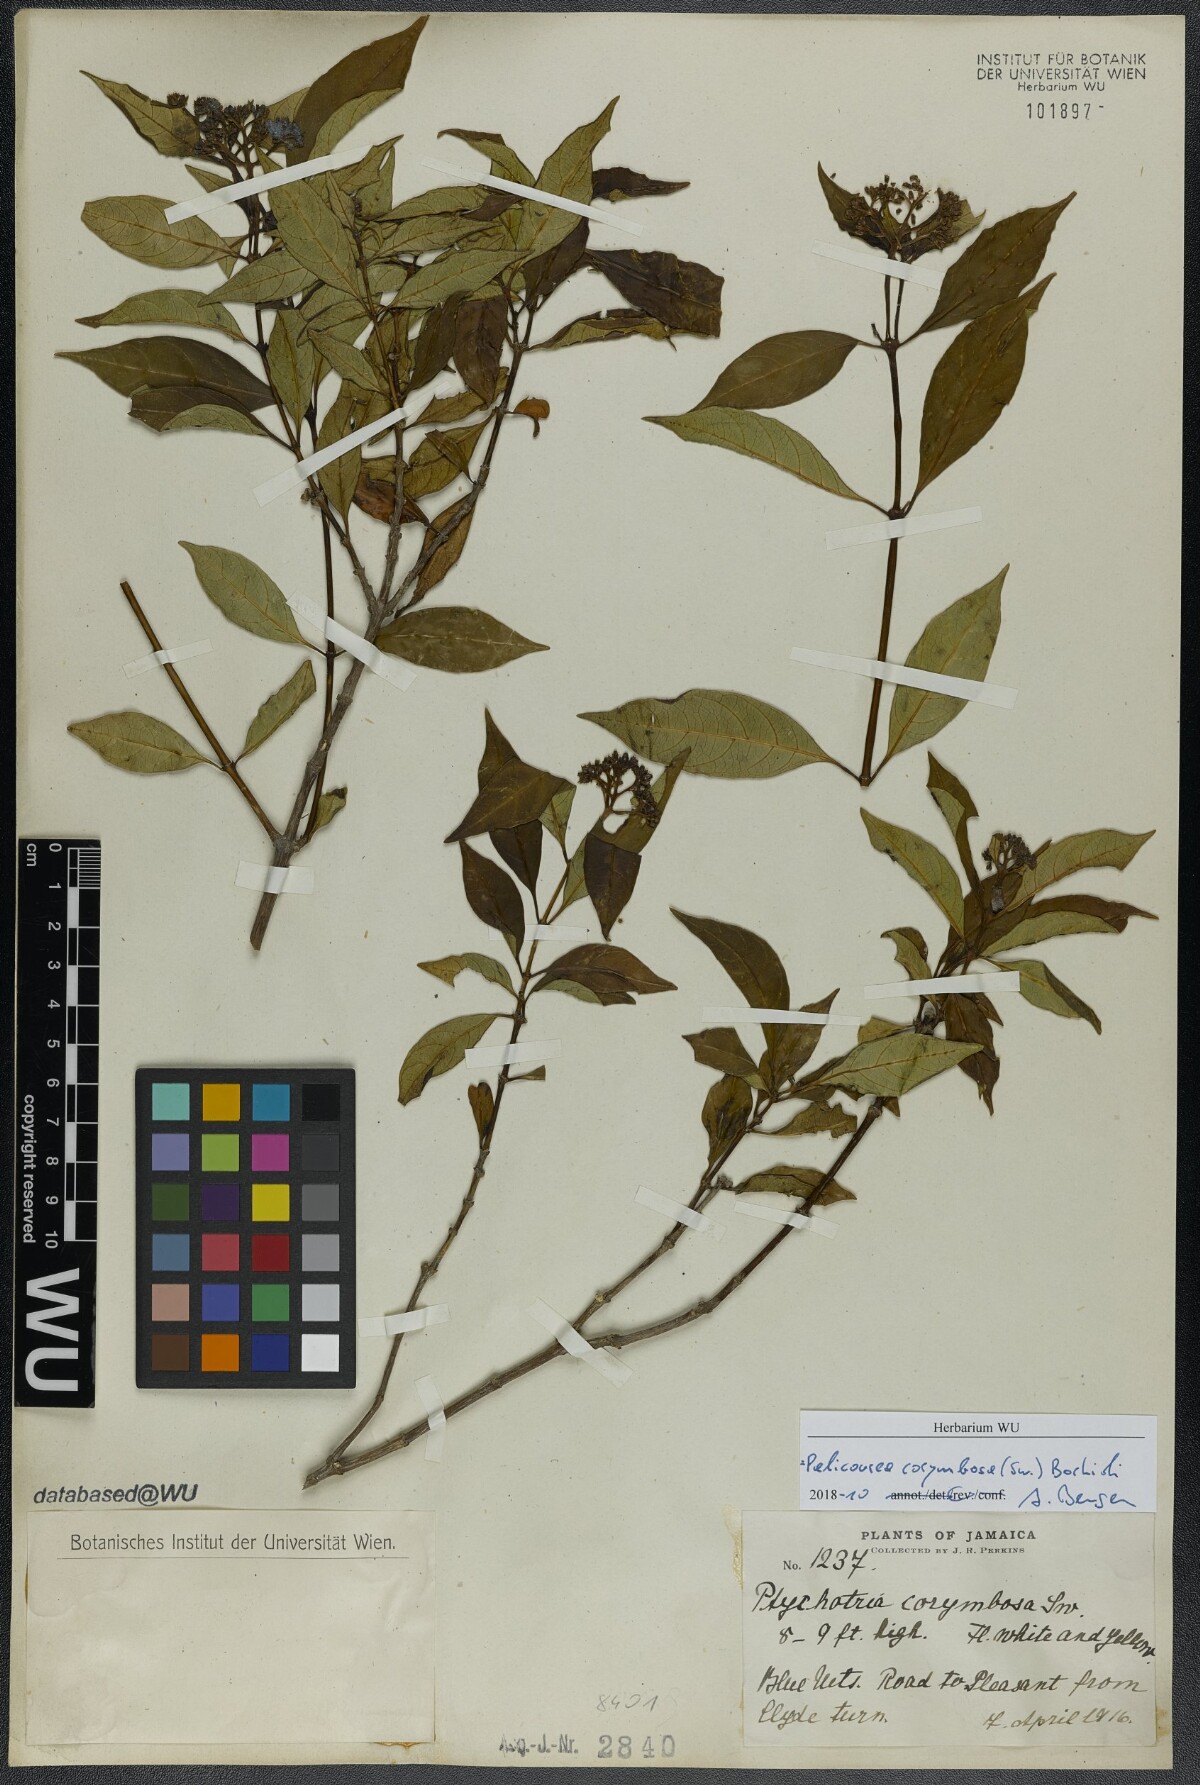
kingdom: Plantae
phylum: Tracheophyta
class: Magnoliopsida
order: Gentianales
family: Rubiaceae
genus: Palicourea
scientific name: Palicourea corymbosa
